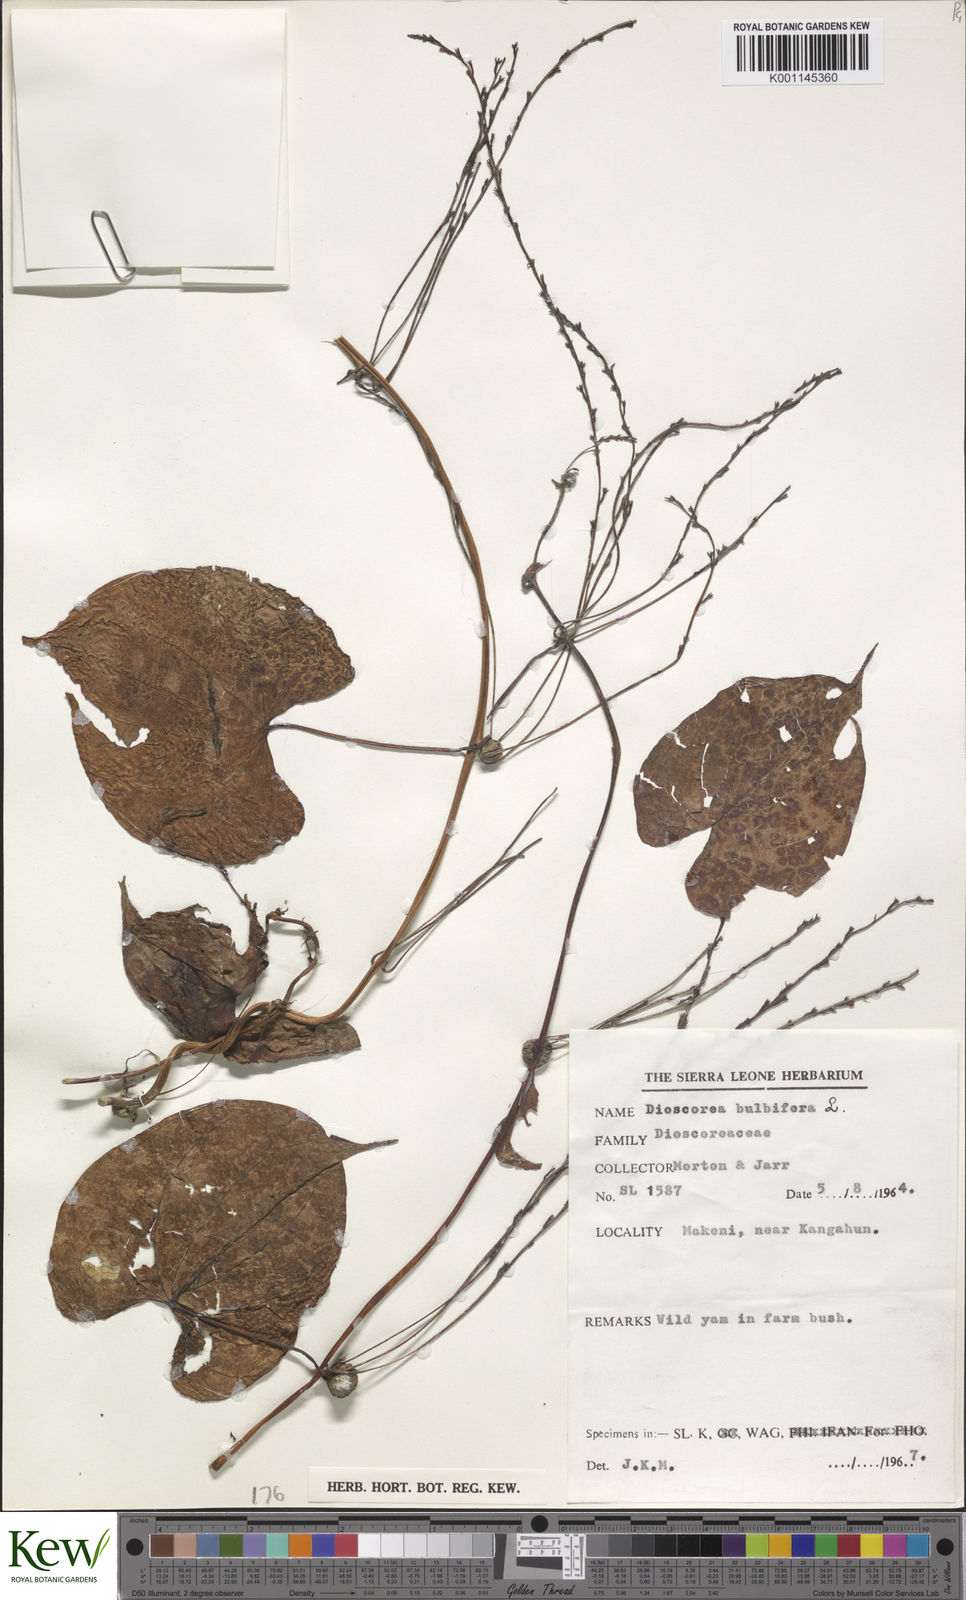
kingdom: Plantae
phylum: Tracheophyta
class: Liliopsida
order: Dioscoreales
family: Dioscoreaceae
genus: Dioscorea
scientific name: Dioscorea bulbifera
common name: Air yam
